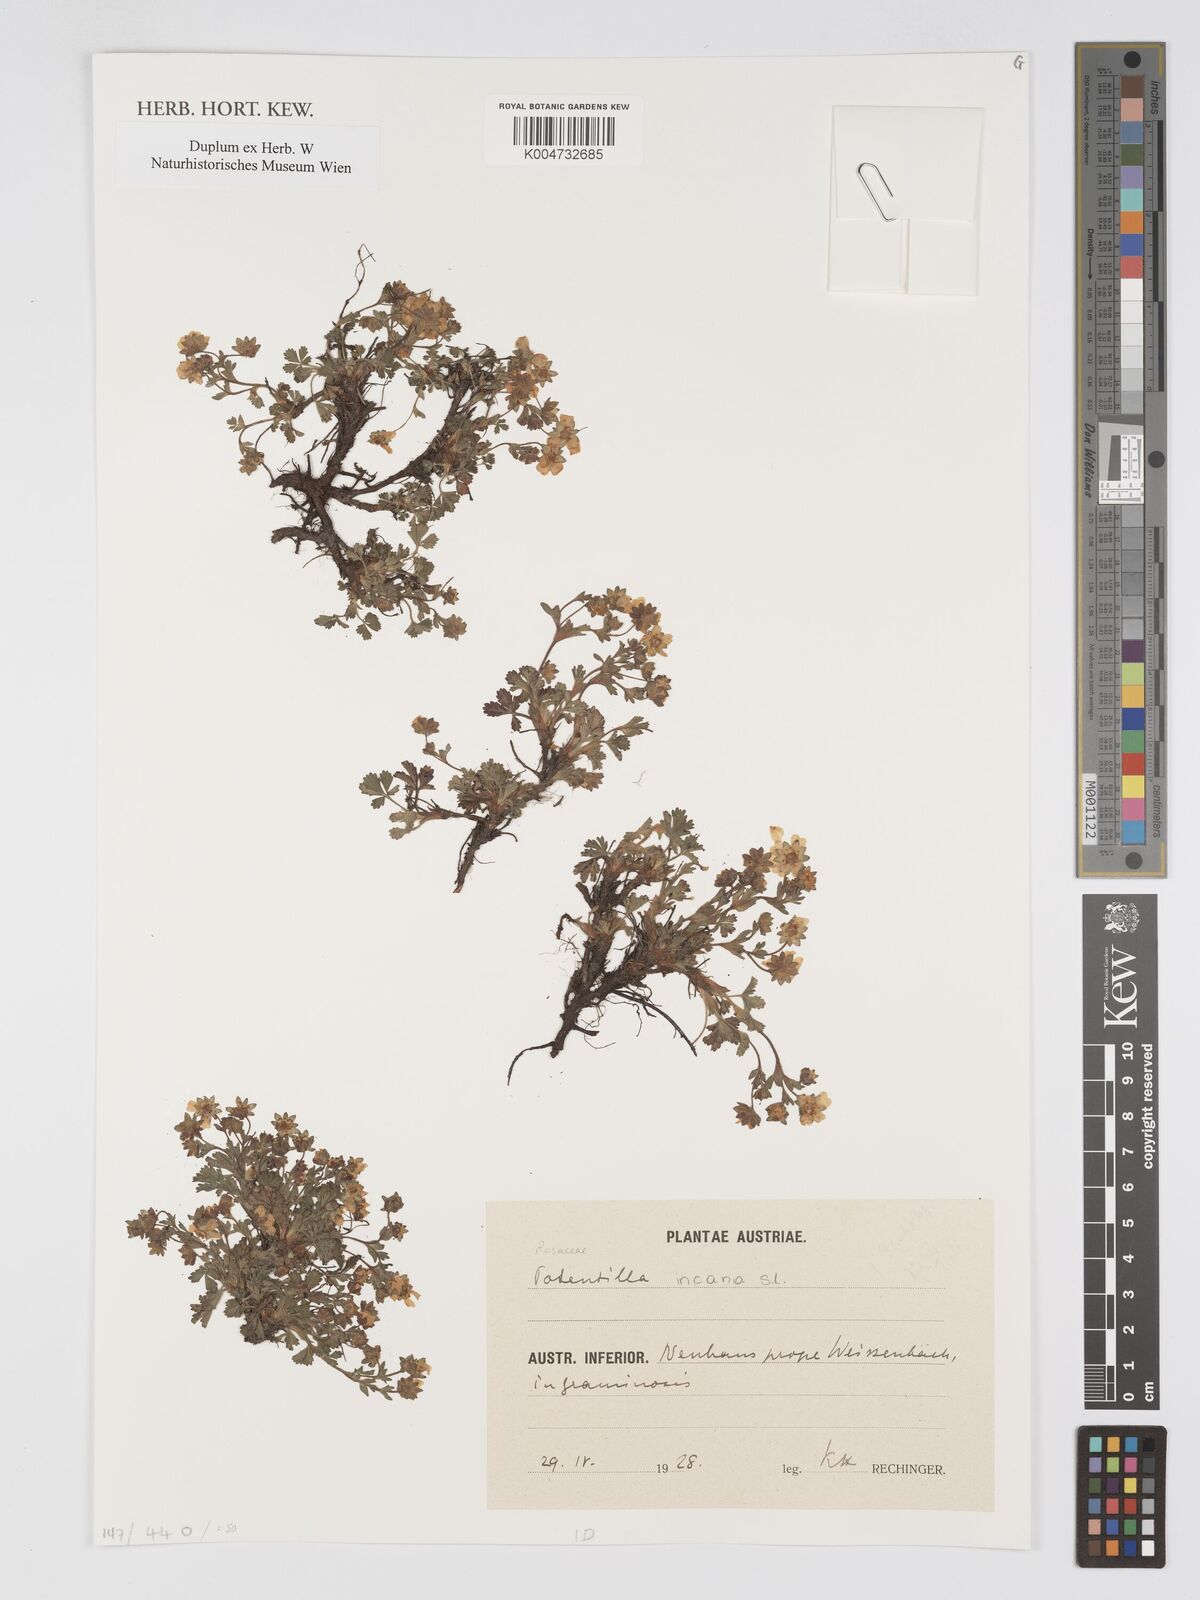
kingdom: Plantae
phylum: Tracheophyta
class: Magnoliopsida
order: Rosales
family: Rosaceae
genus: Potentilla
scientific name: Potentilla cinerea
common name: Ashy cinquefoil
